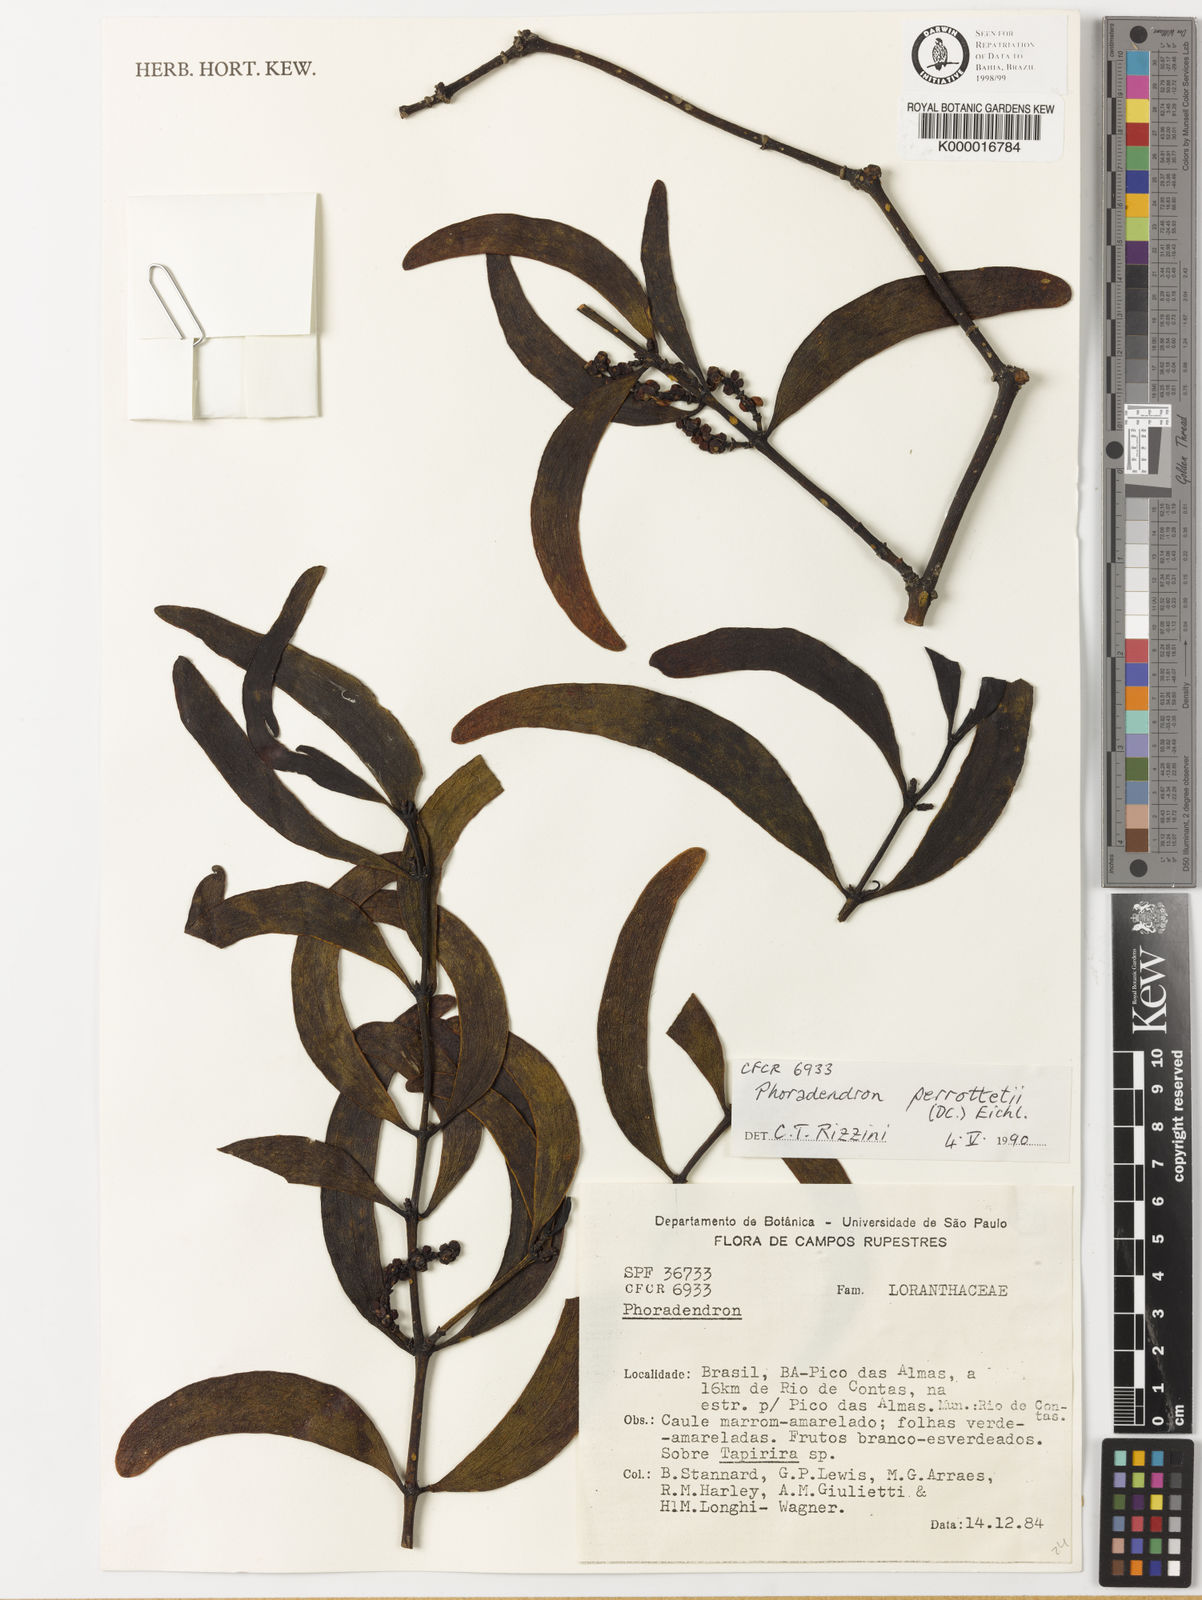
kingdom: Plantae
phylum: Tracheophyta
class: Magnoliopsida
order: Santalales
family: Viscaceae
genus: Phoradendron
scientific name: Phoradendron perrottetii
